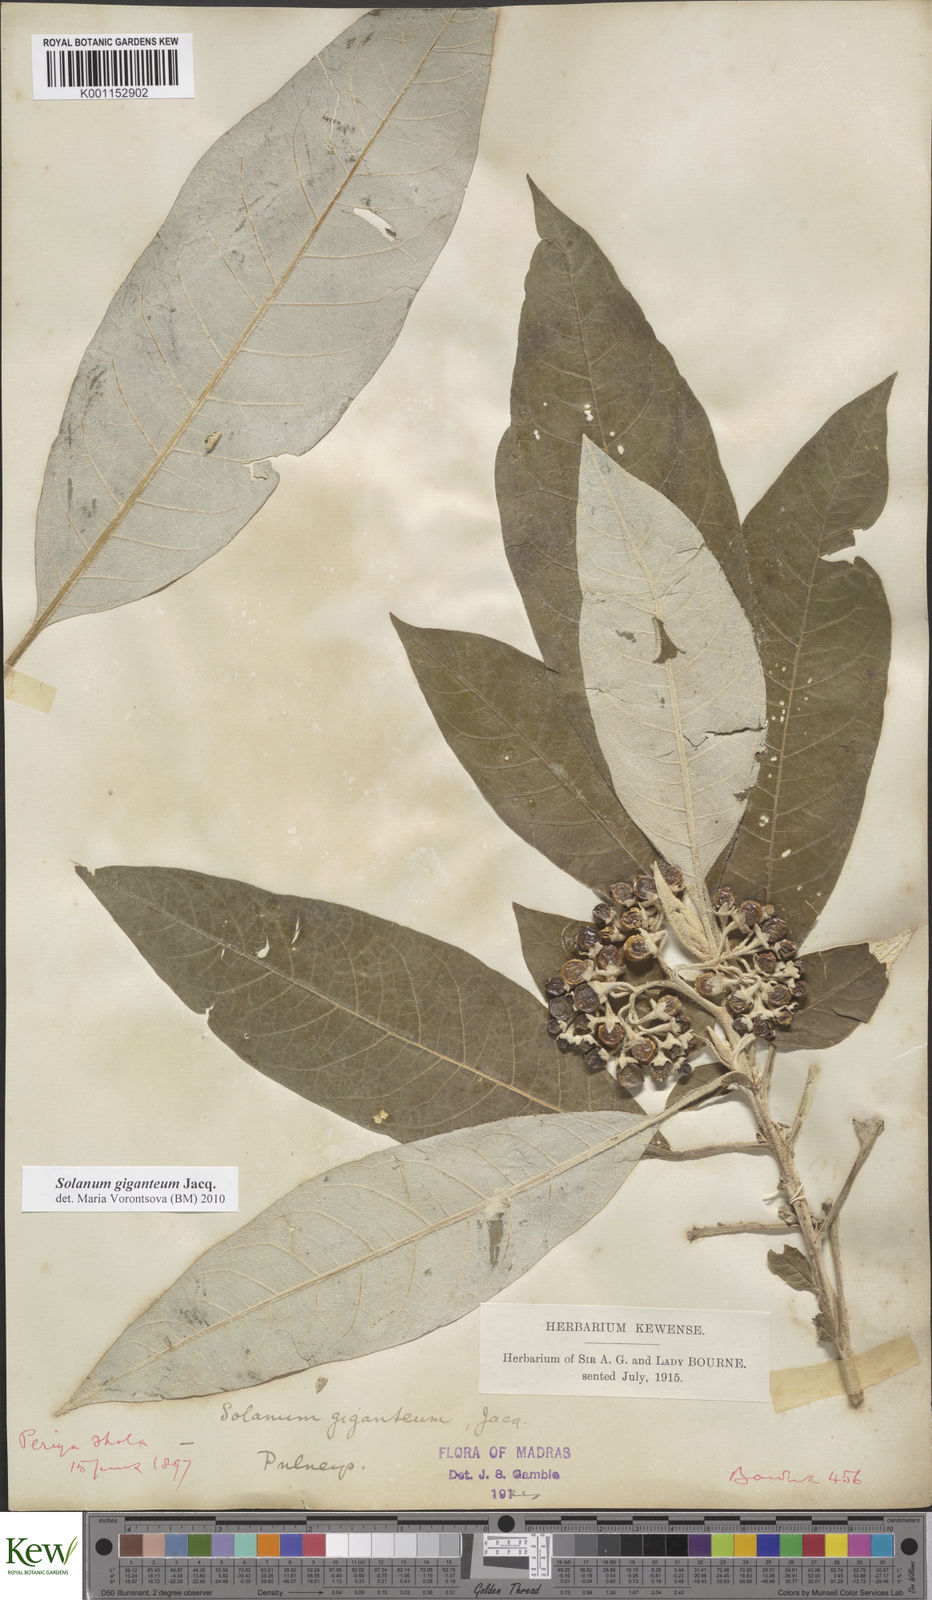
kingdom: Plantae
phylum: Tracheophyta
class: Magnoliopsida
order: Solanales
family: Solanaceae
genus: Solanum
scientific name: Solanum giganteum
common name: Healing-leaf-tree
